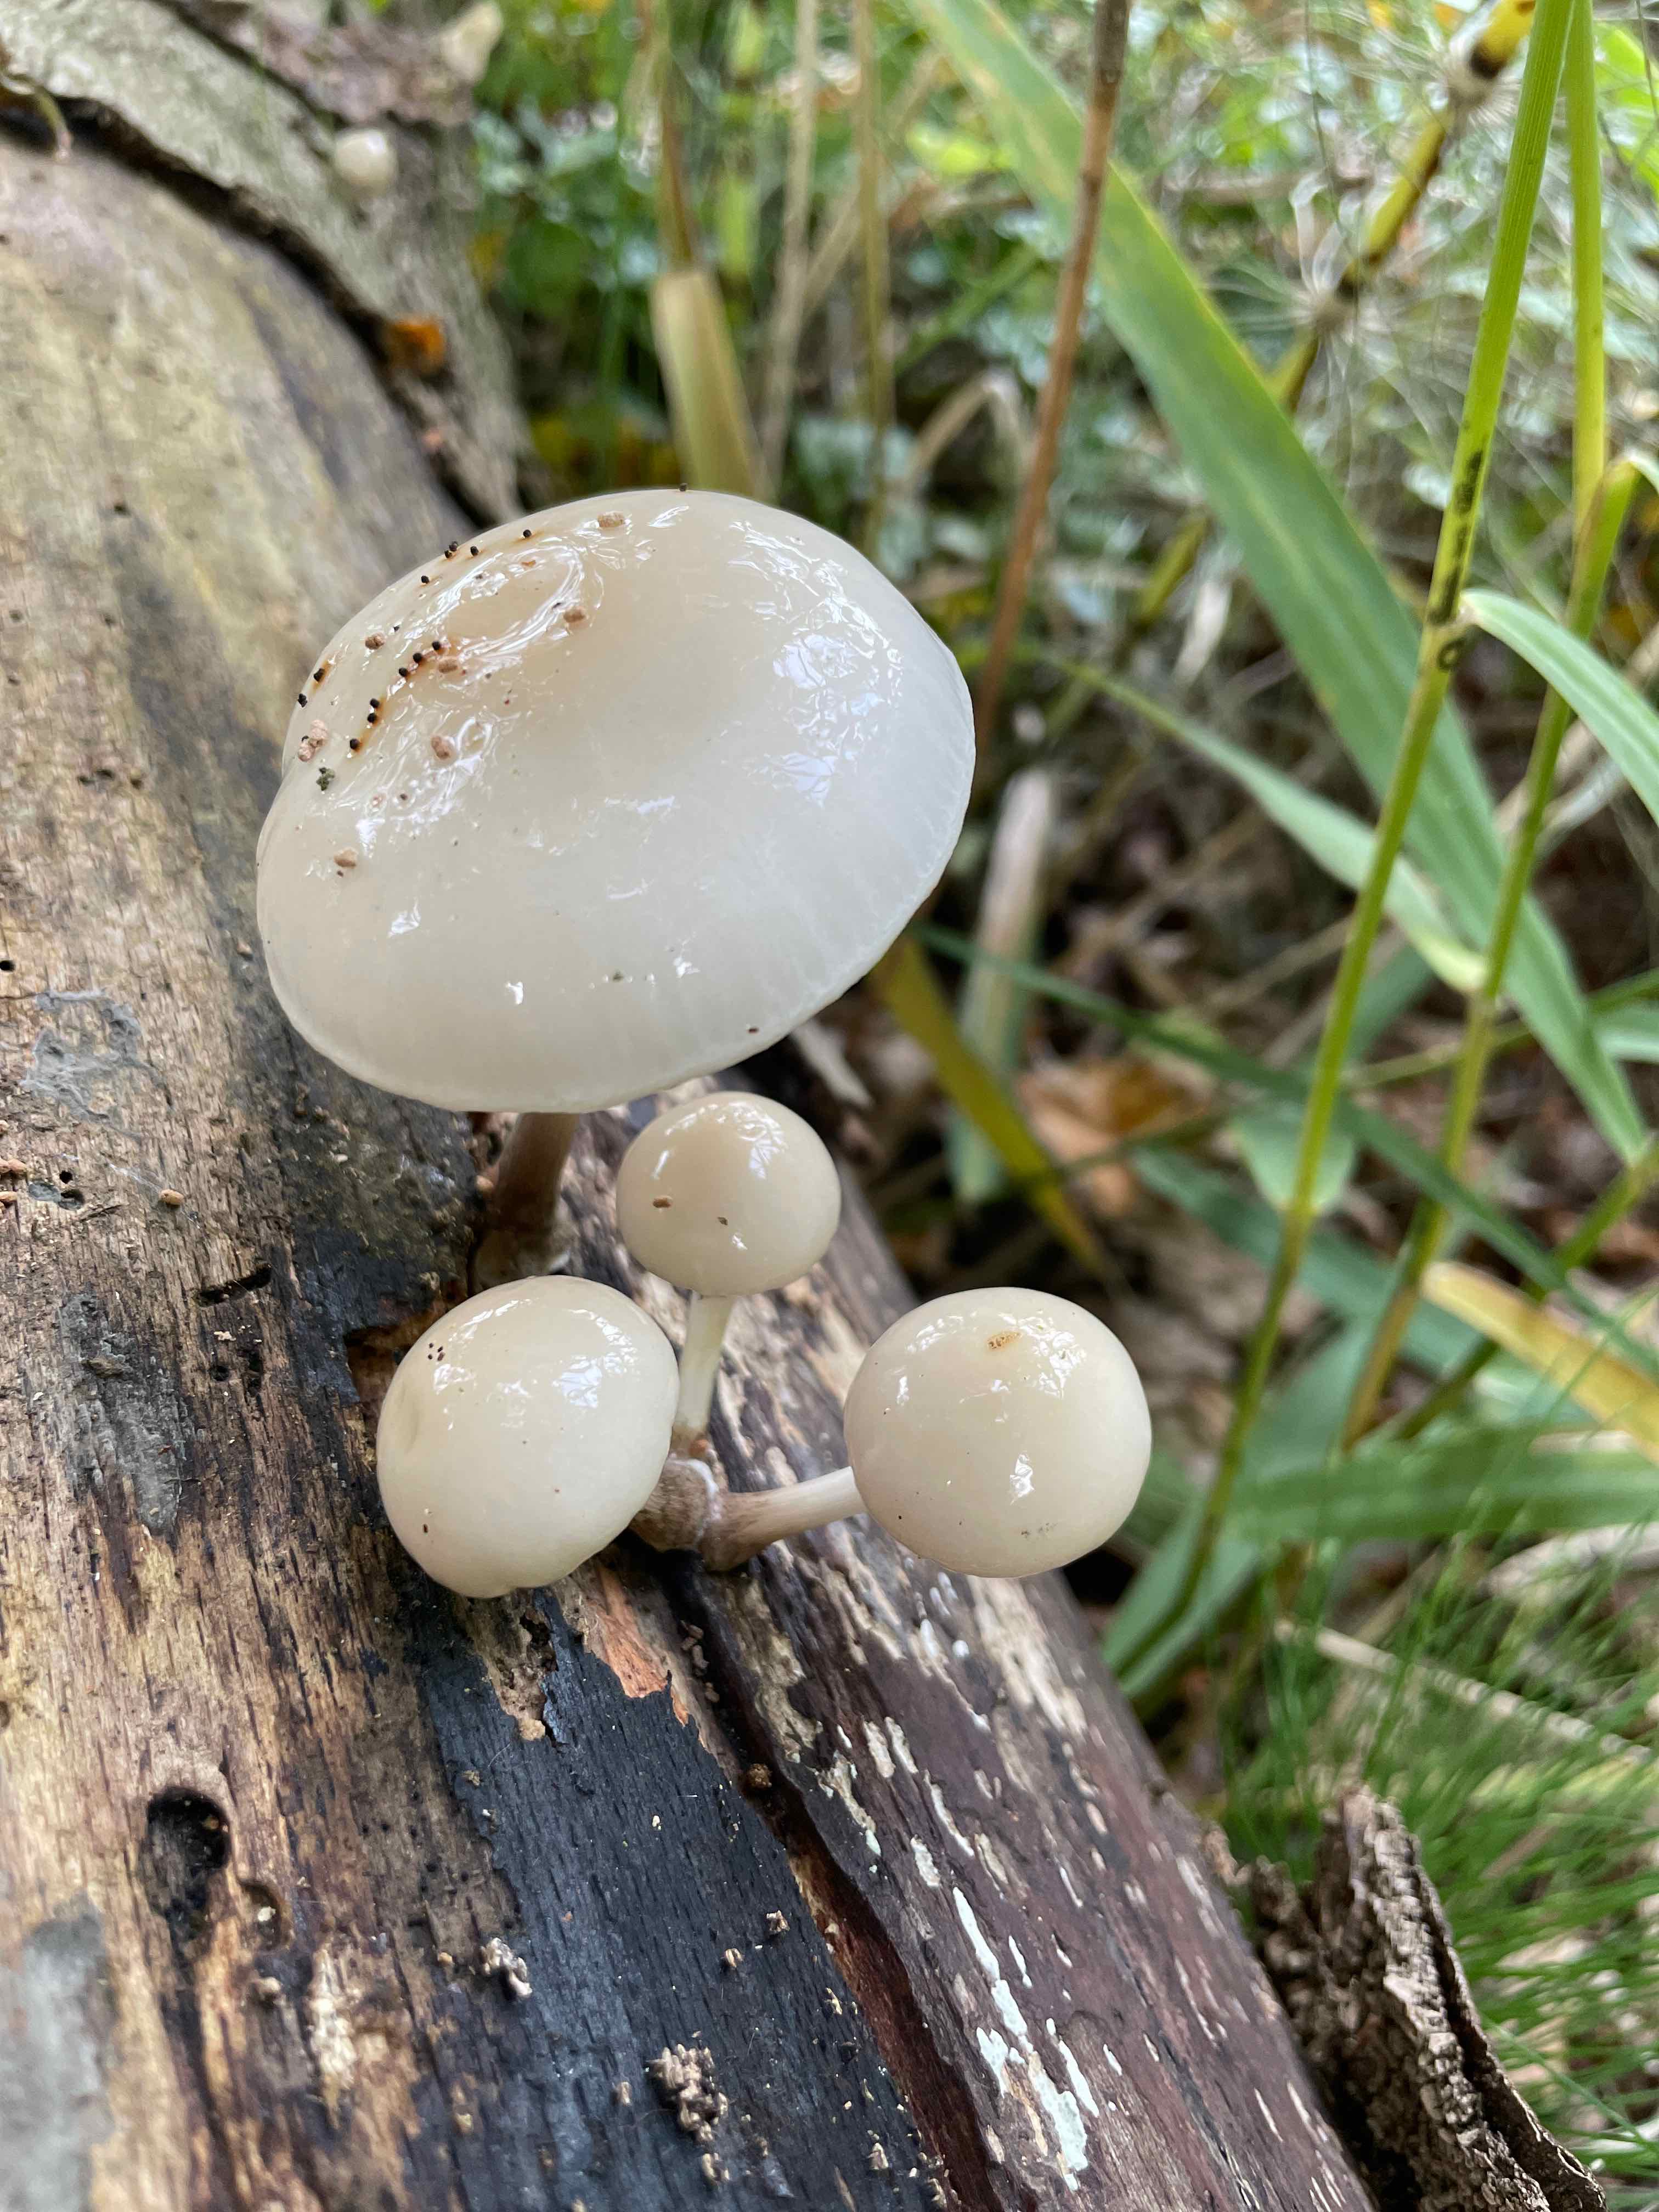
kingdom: Fungi
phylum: Basidiomycota
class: Agaricomycetes
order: Agaricales
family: Physalacriaceae
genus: Mucidula
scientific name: Mucidula mucida
